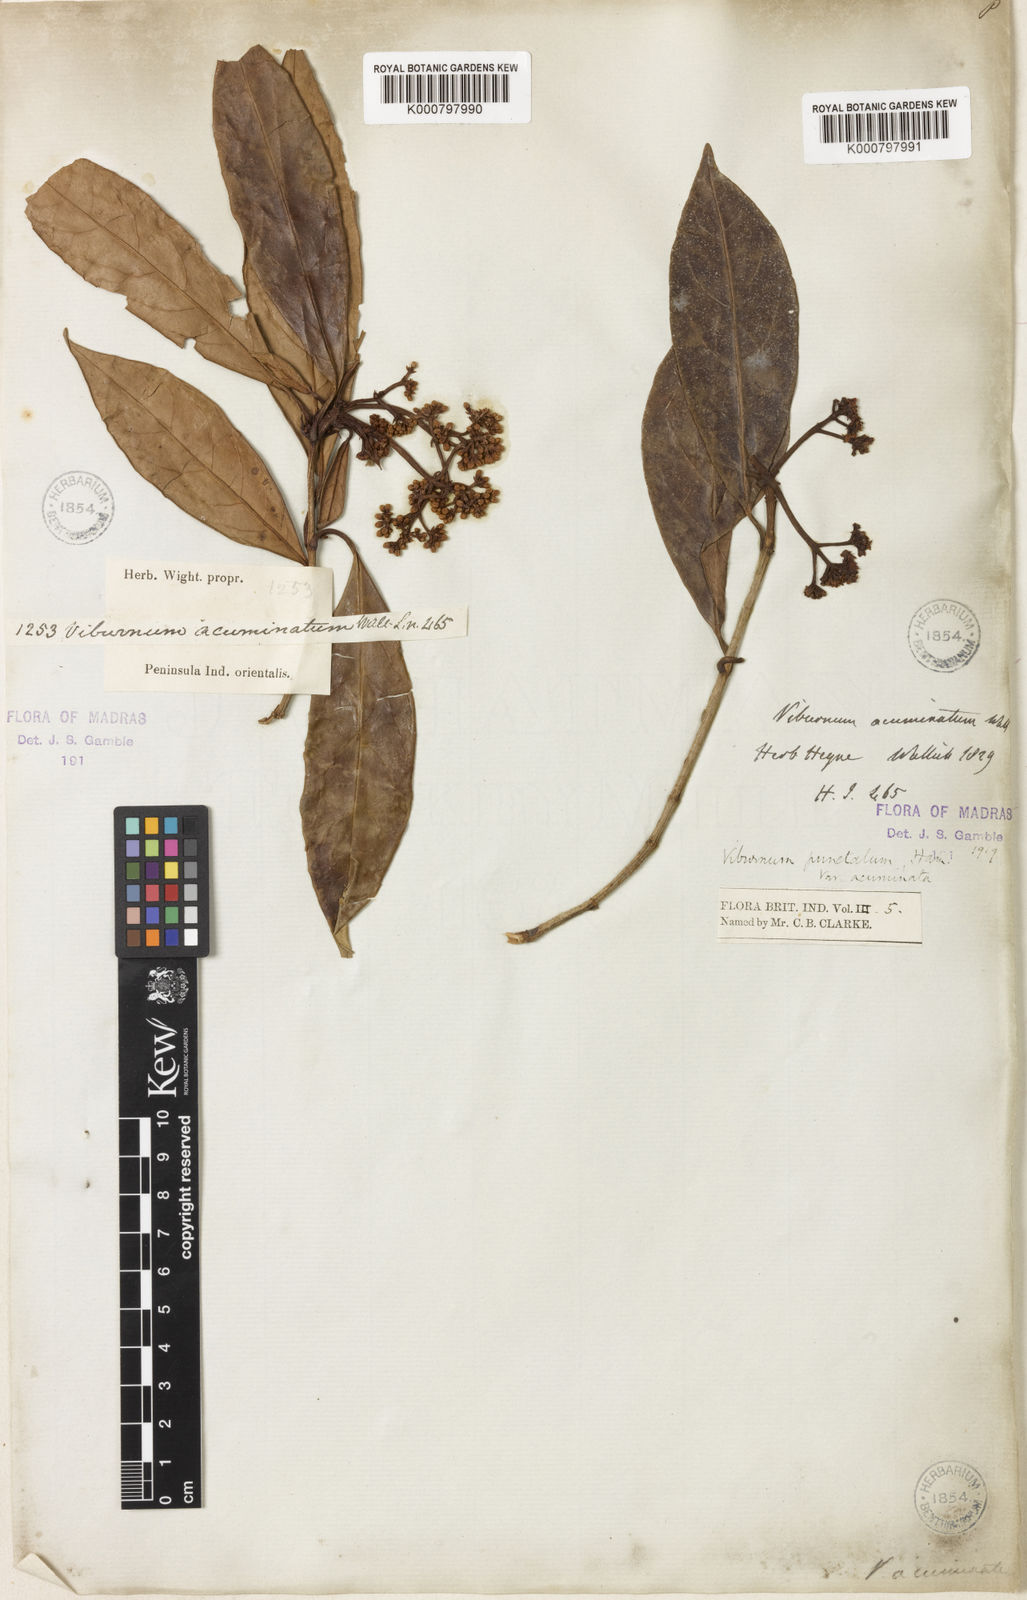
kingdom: Plantae
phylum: Tracheophyta
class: Magnoliopsida
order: Dipsacales
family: Viburnaceae
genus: Viburnum
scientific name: Viburnum punctatum
